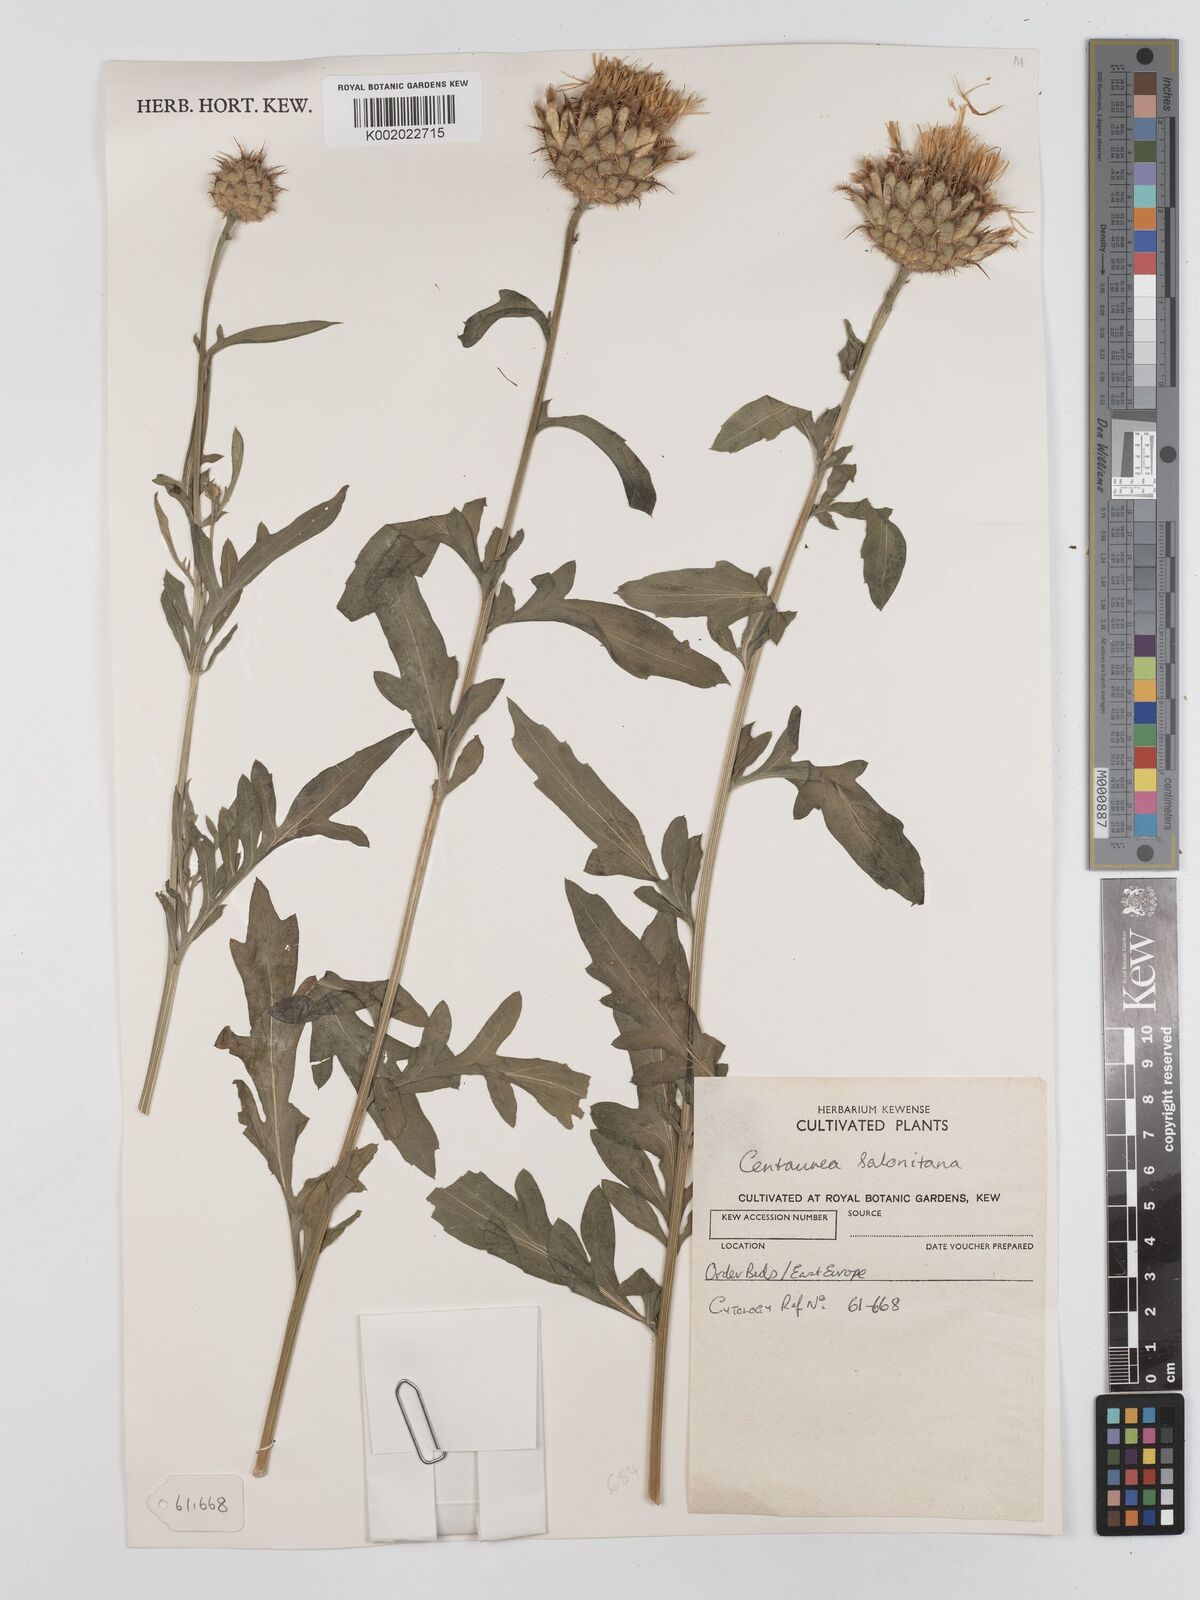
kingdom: Plantae
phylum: Tracheophyta
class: Magnoliopsida
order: Asterales
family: Asteraceae
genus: Centaurea
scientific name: Centaurea salonitana
